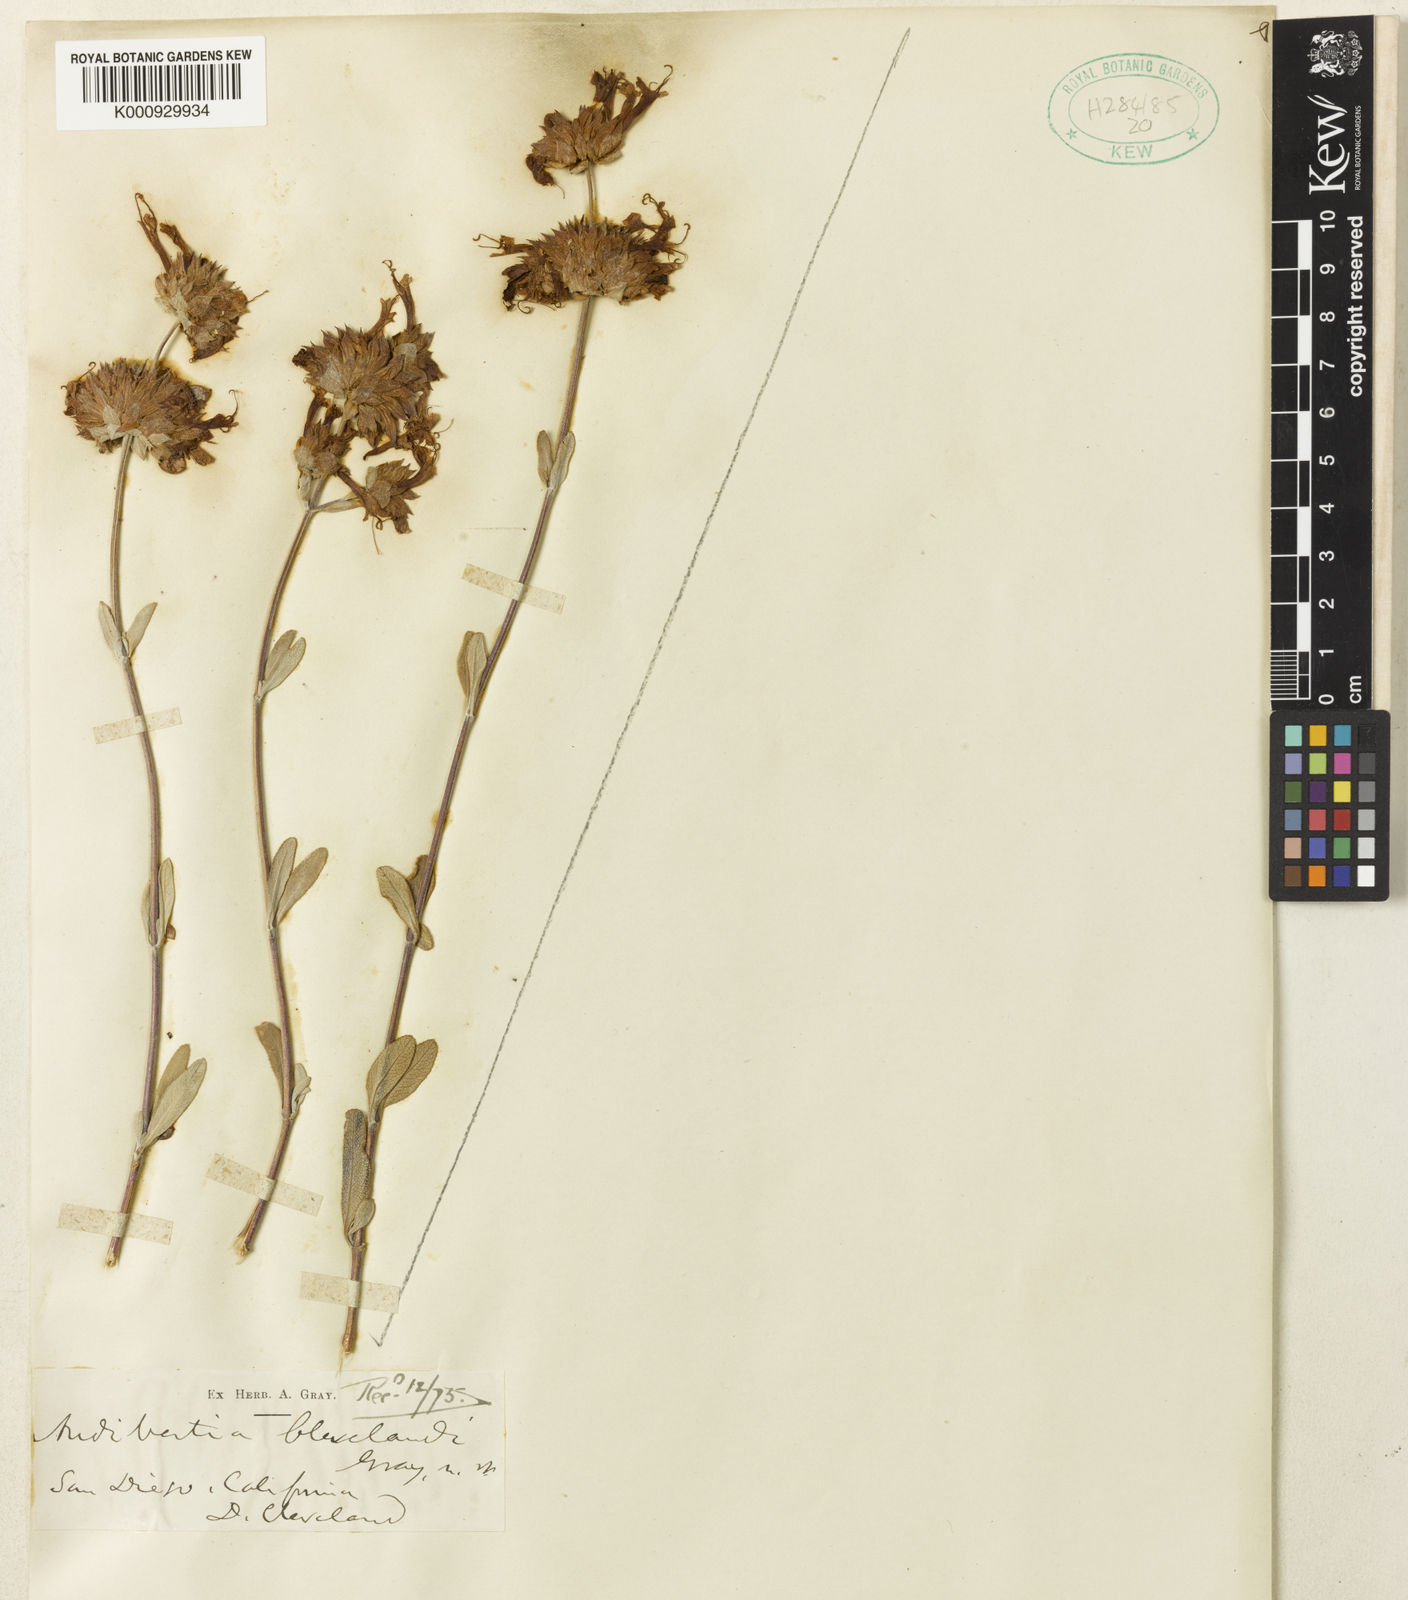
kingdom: Plantae
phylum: Tracheophyta
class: Magnoliopsida
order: Lamiales
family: Lamiaceae
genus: Salvia
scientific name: Salvia clevelandii
